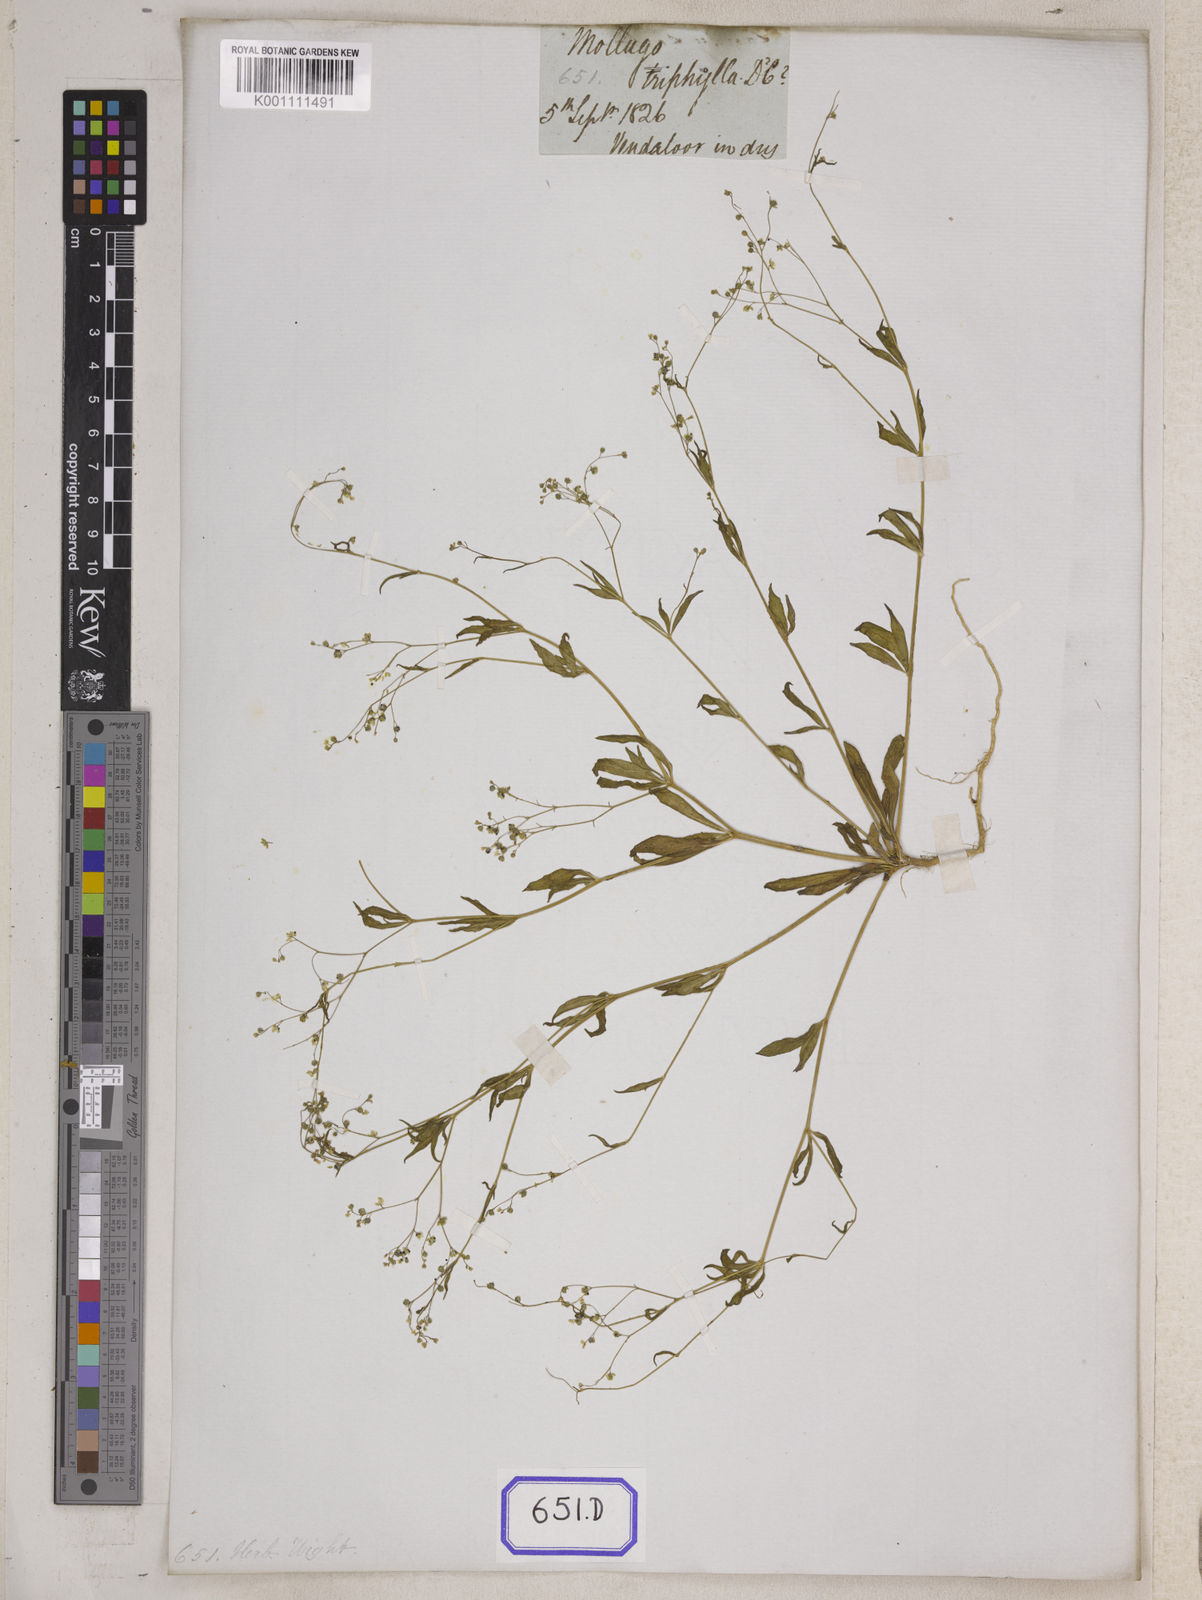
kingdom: Plantae
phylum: Tracheophyta
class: Magnoliopsida
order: Caryophyllales
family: Molluginaceae
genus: Trigastrotheca
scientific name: Trigastrotheca stricta
